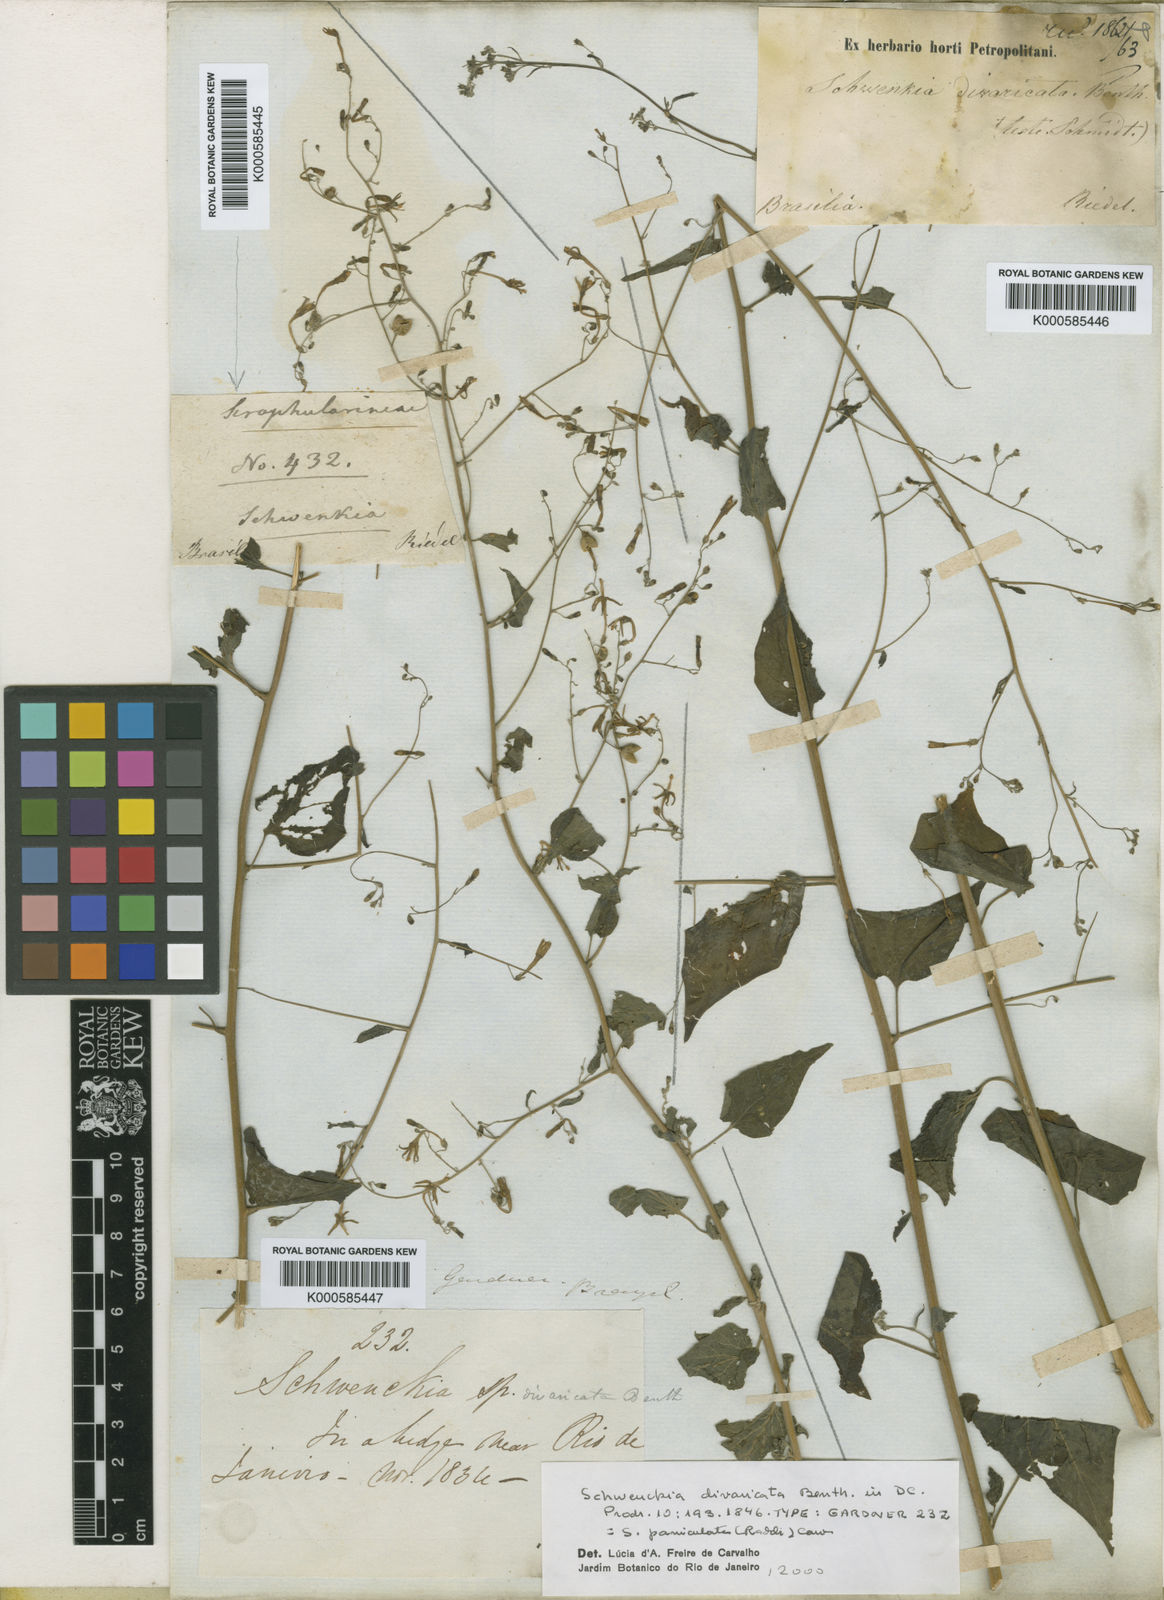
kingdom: Plantae
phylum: Tracheophyta
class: Magnoliopsida
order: Solanales
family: Solanaceae
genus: Schwenckia
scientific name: Schwenckia paniculata
